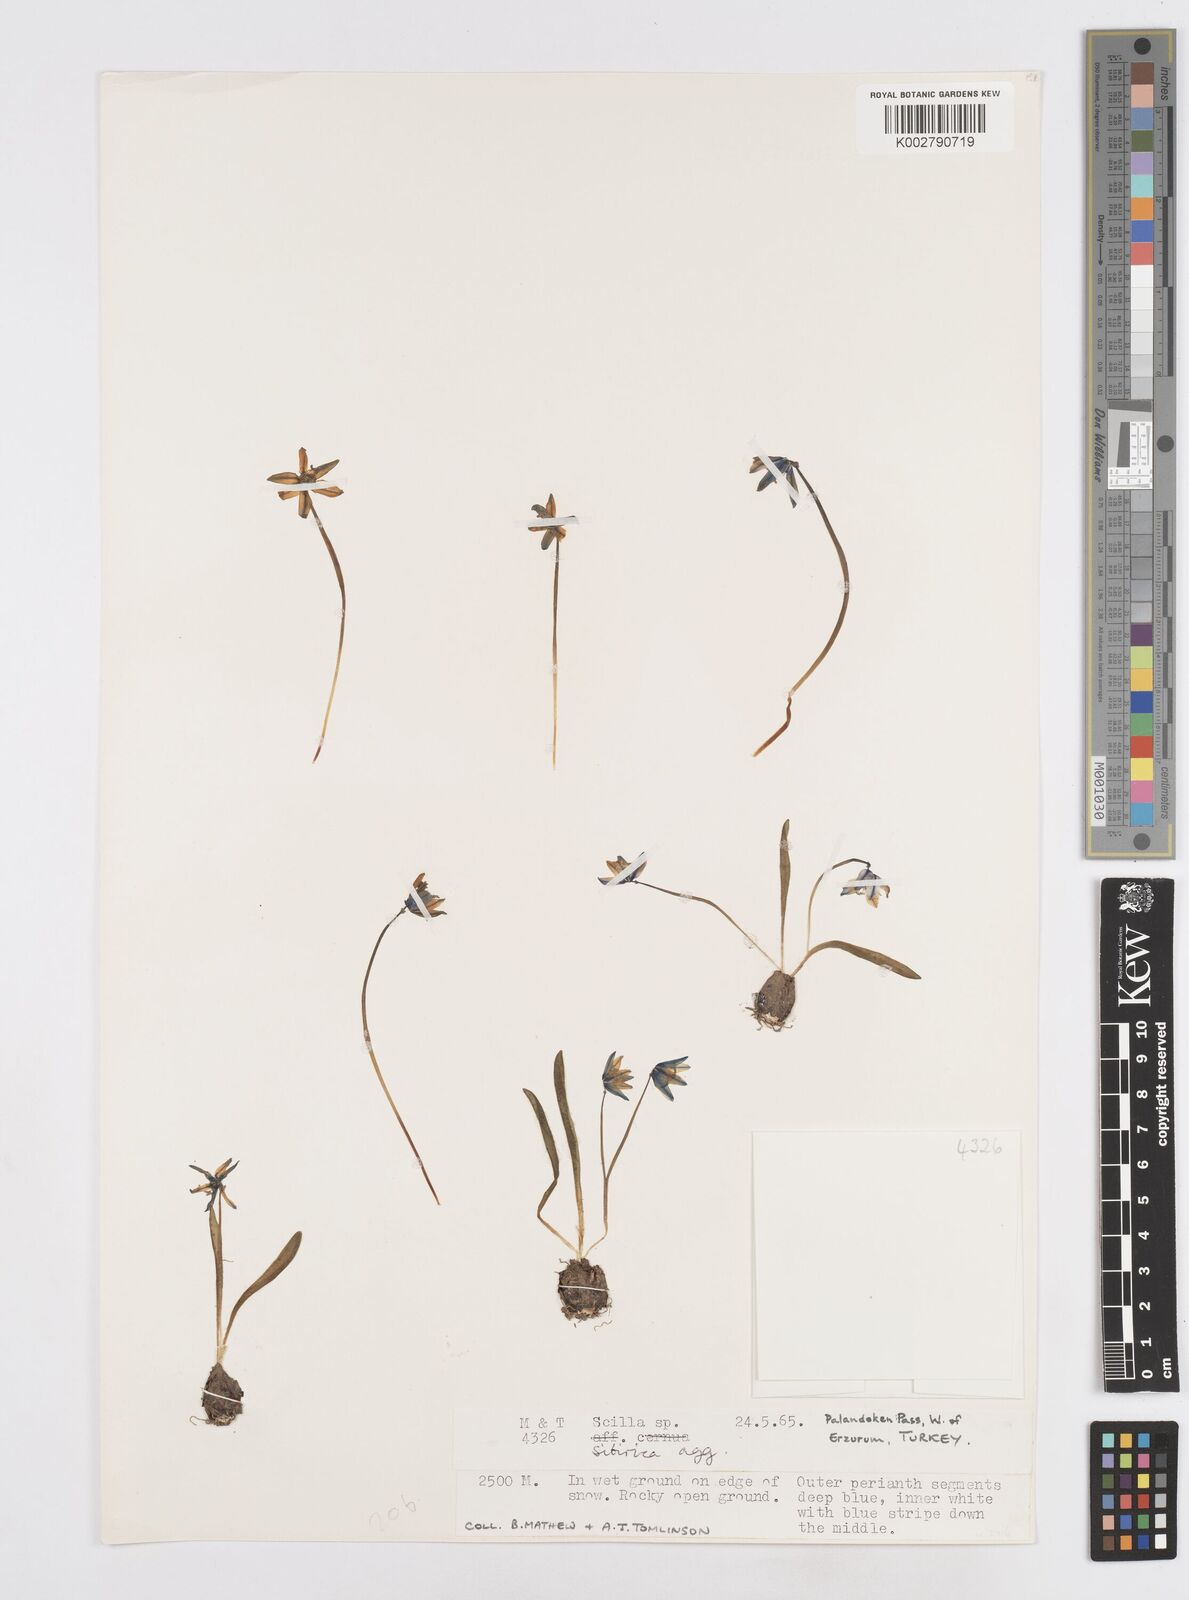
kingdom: Plantae
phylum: Tracheophyta
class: Liliopsida
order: Asparagales
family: Asparagaceae
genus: Scilla
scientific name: Scilla siberica
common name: Siberian squill
